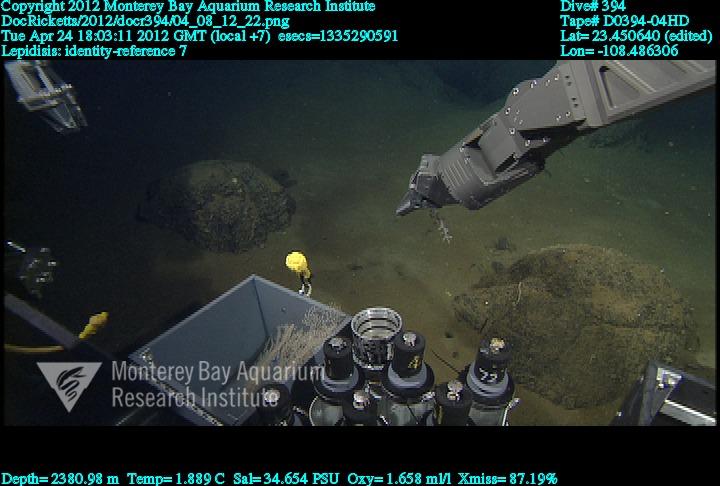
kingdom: Animalia
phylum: Cnidaria
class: Anthozoa
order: Scleralcyonacea
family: Keratoisididae
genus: Lepidisis
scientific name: Lepidisis
